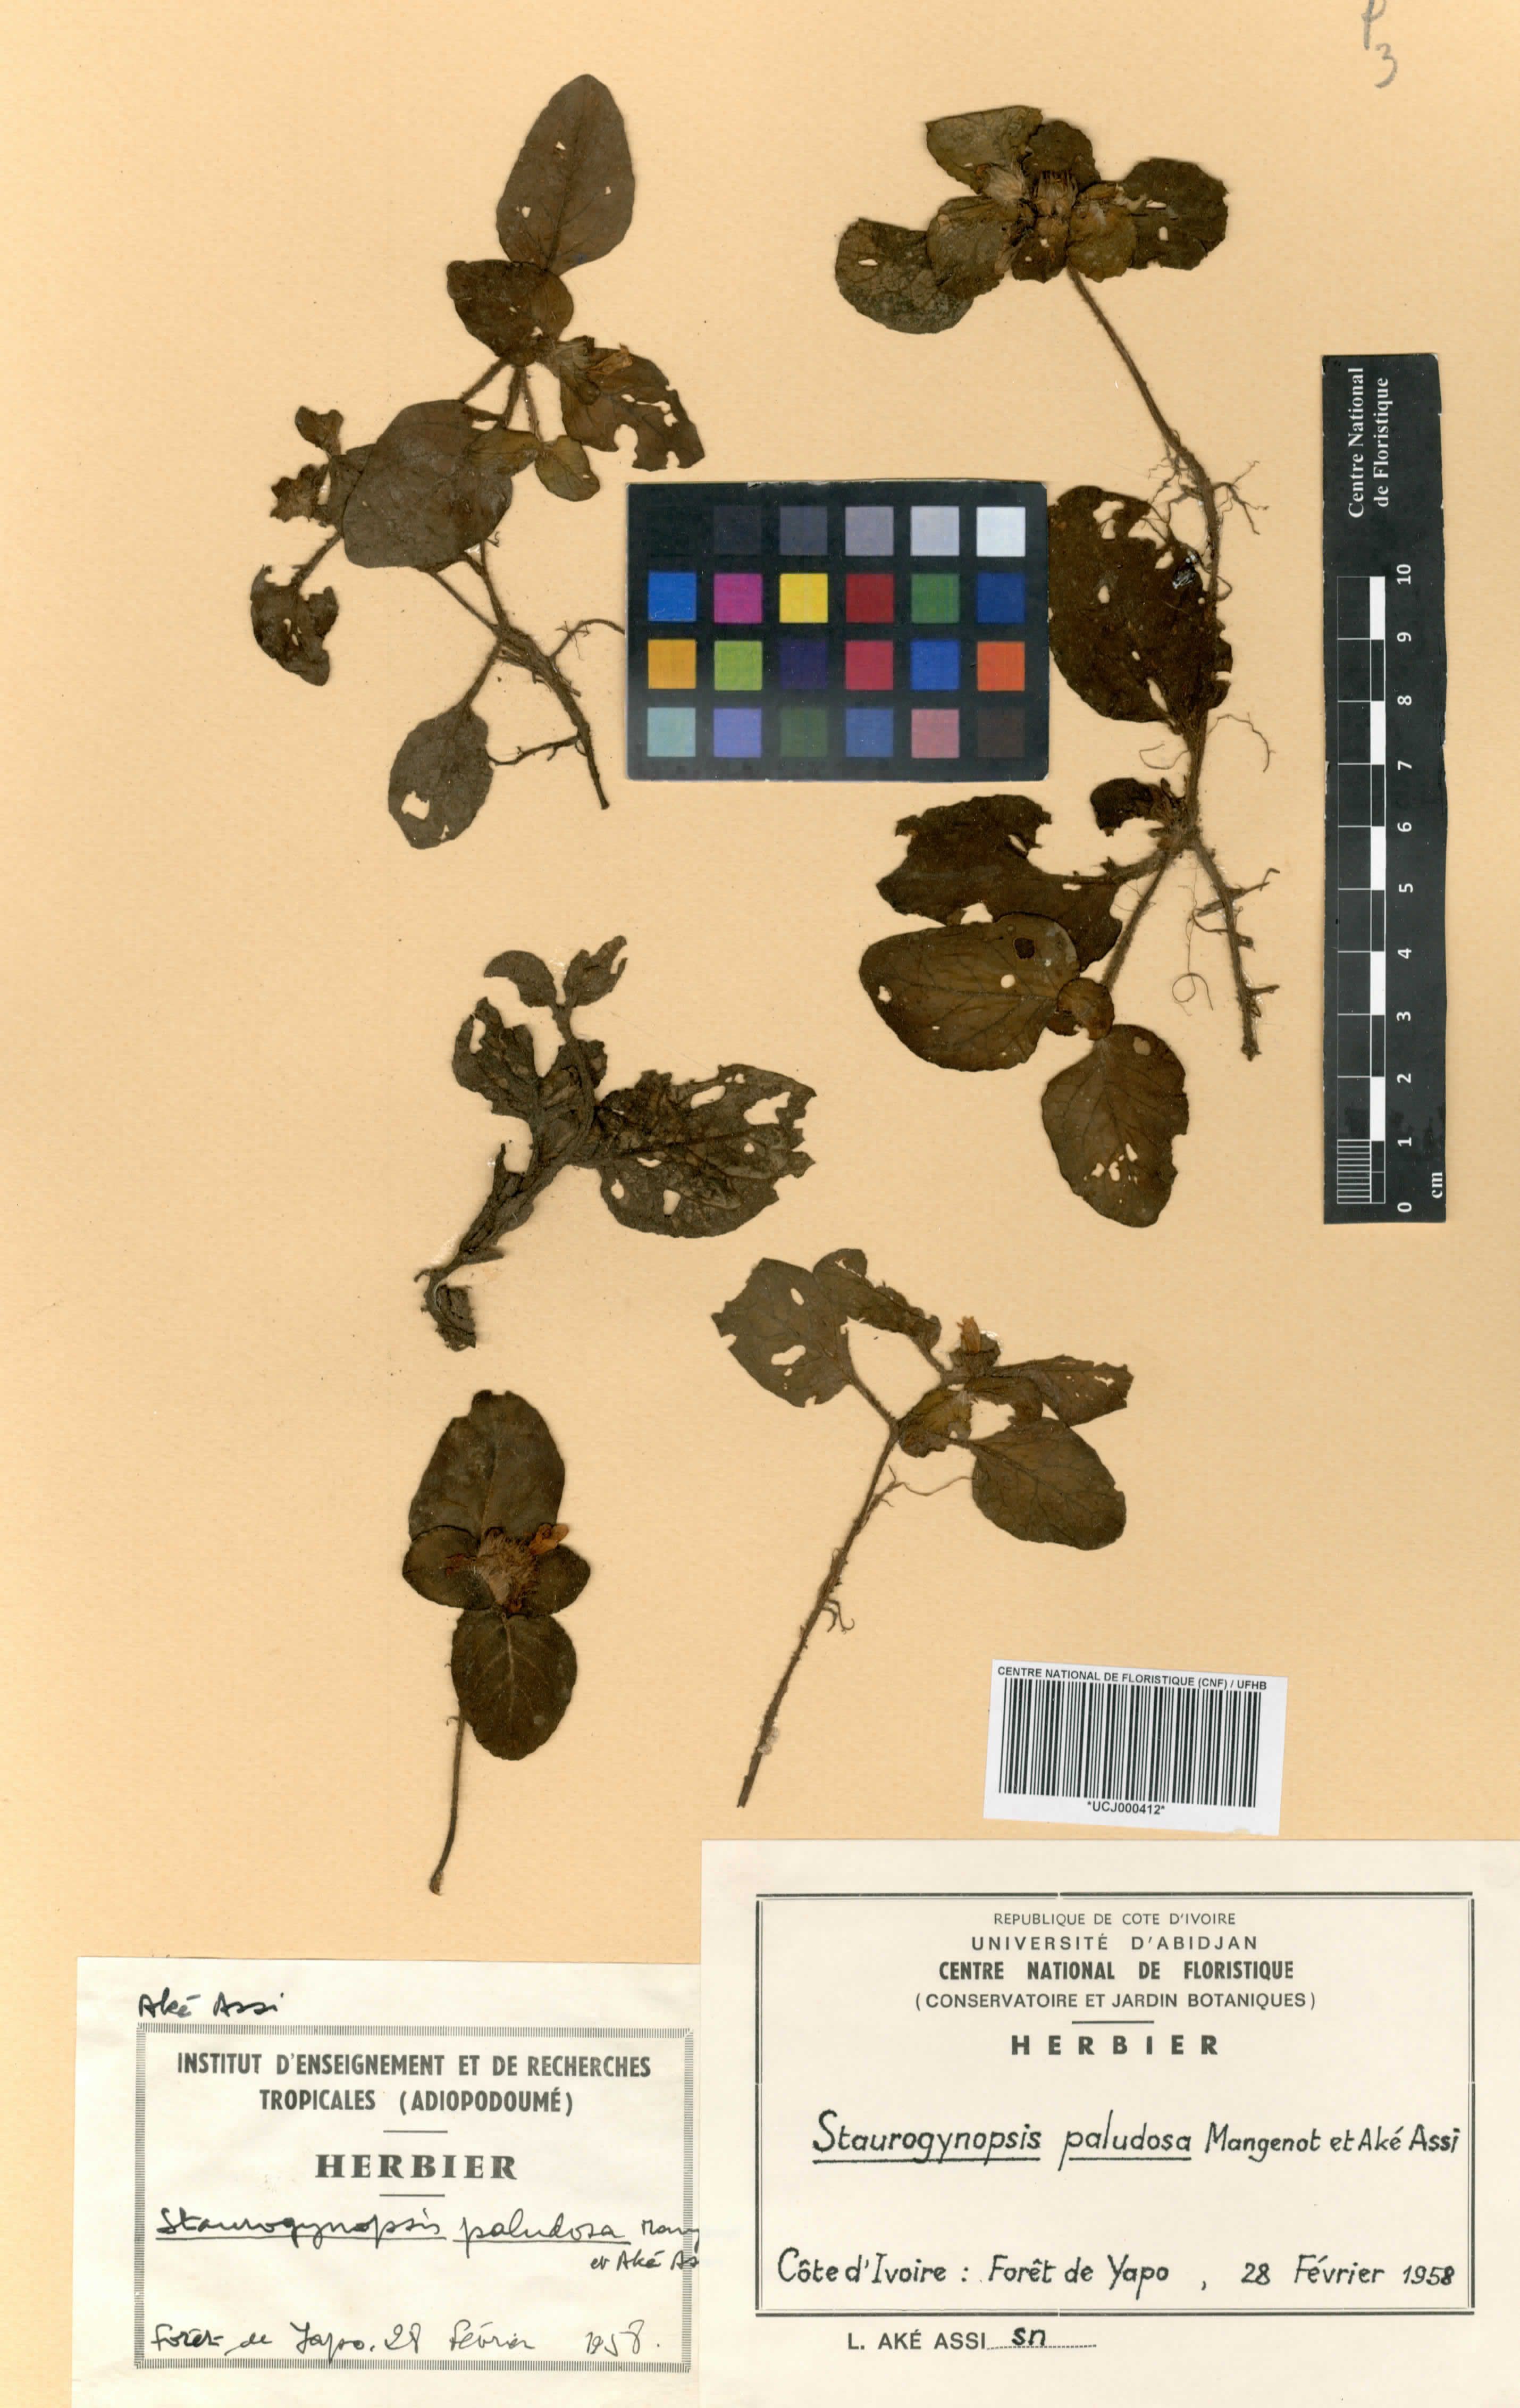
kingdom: Plantae
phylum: Tracheophyta
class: Magnoliopsida
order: Lamiales
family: Acanthaceae
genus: Staurogyne
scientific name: Staurogyne capitata
